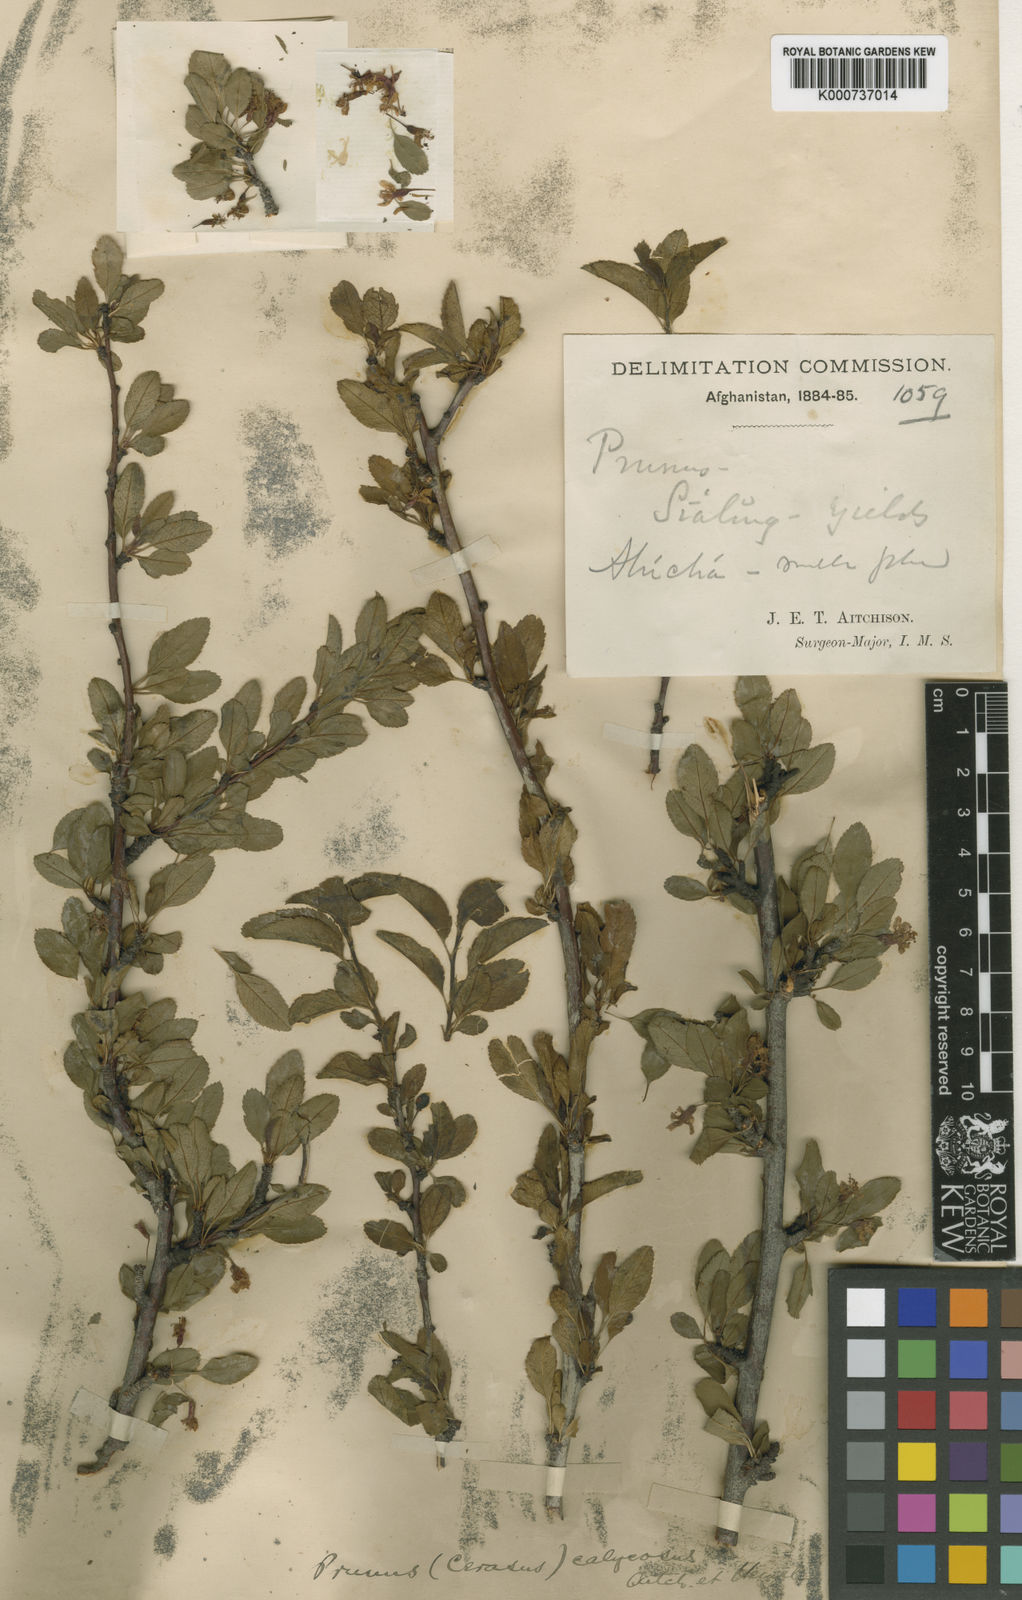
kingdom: Plantae
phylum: Tracheophyta
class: Magnoliopsida
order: Rosales
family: Rosaceae
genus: Prunus
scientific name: Prunus
